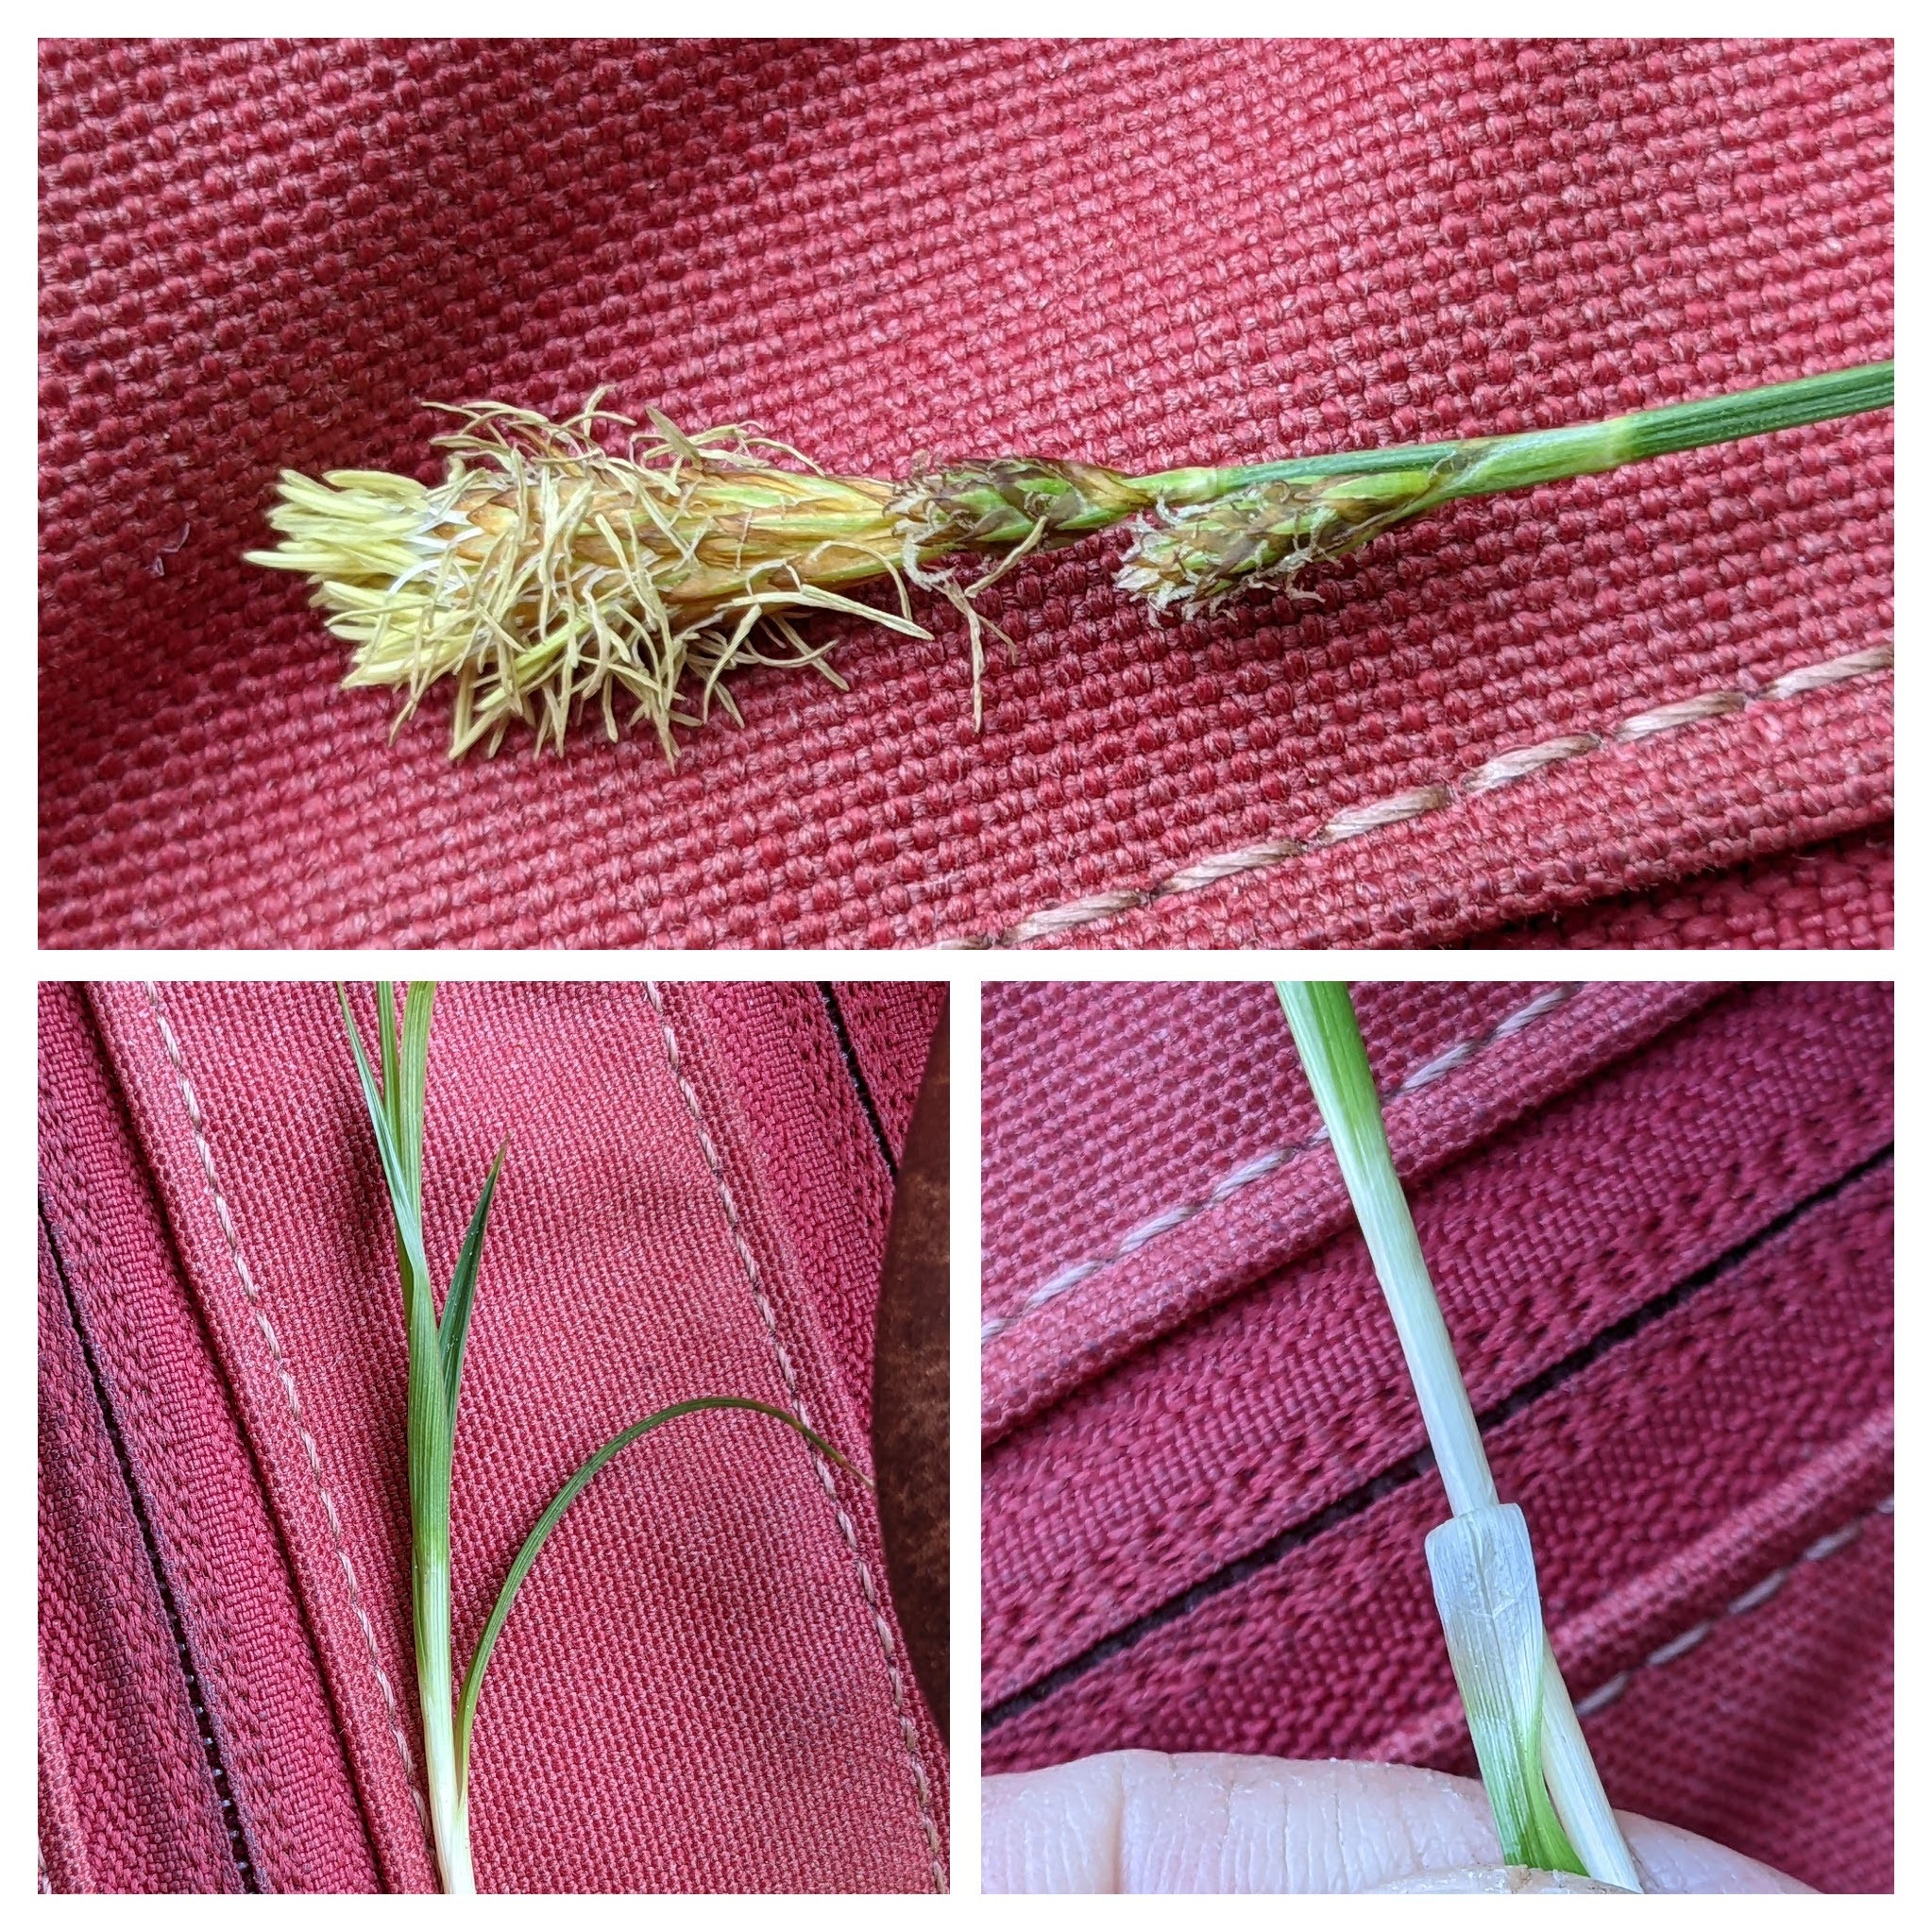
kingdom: Plantae
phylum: Tracheophyta
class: Liliopsida
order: Poales
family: Cyperaceae
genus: Carex
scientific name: Carex caryophyllea
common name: Vår-star
